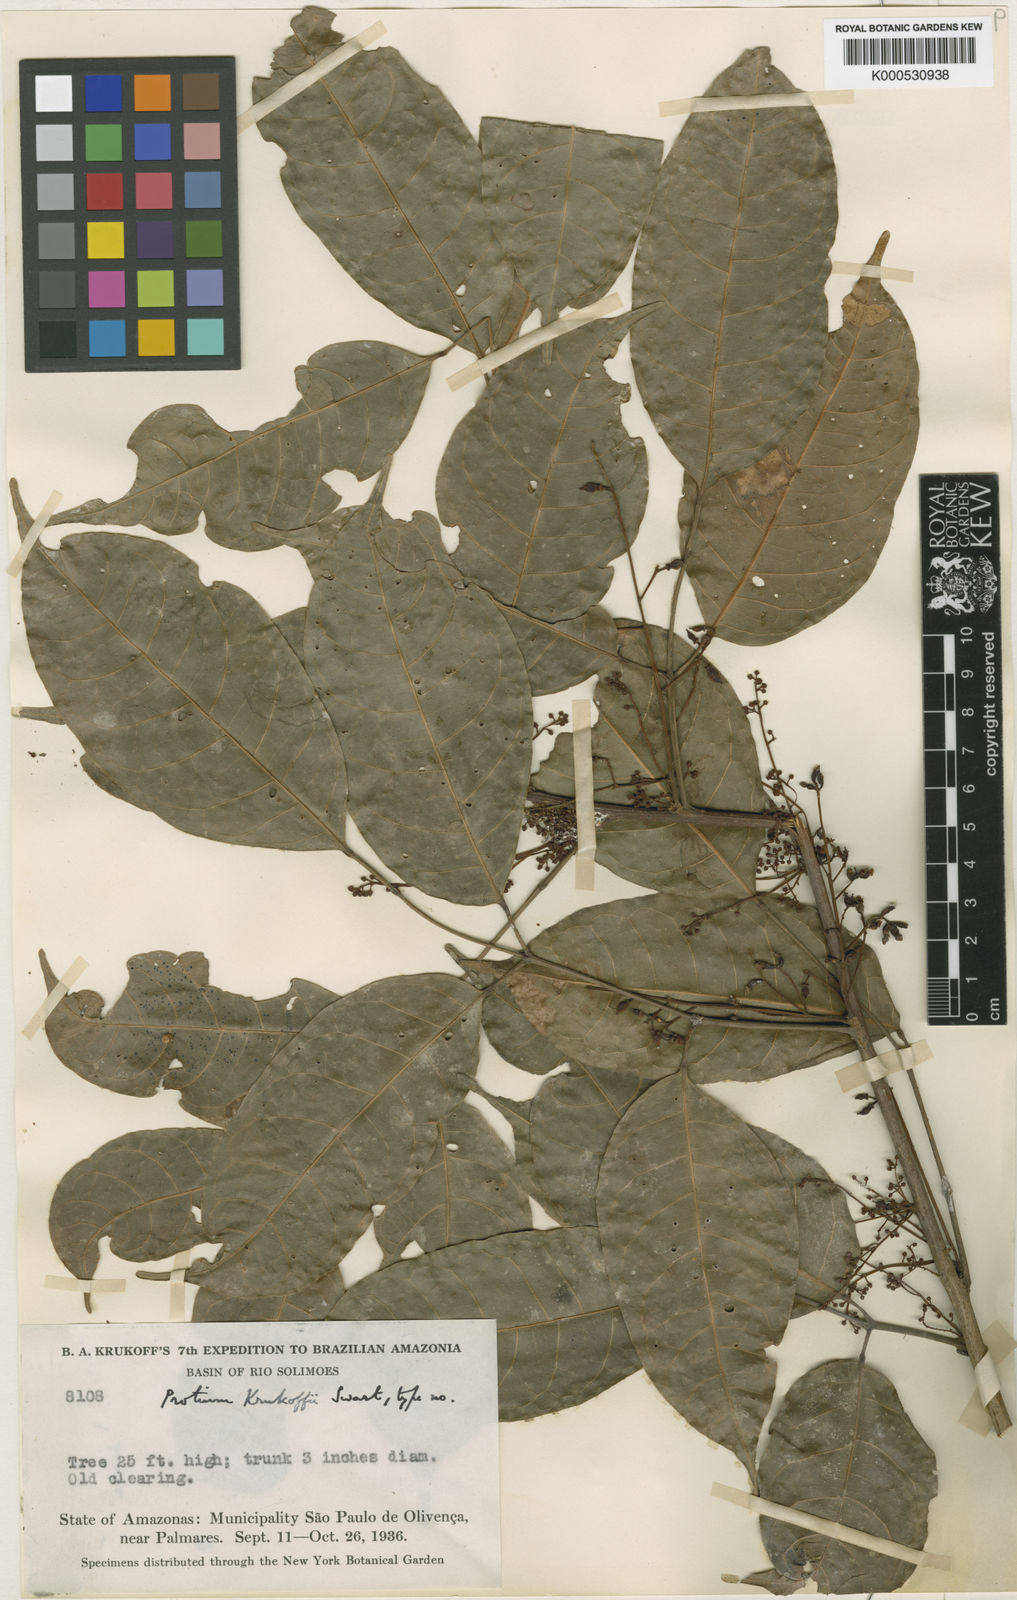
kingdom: Plantae
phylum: Tracheophyta
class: Magnoliopsida
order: Sapindales
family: Burseraceae
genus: Protium
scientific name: Protium krukoffii
